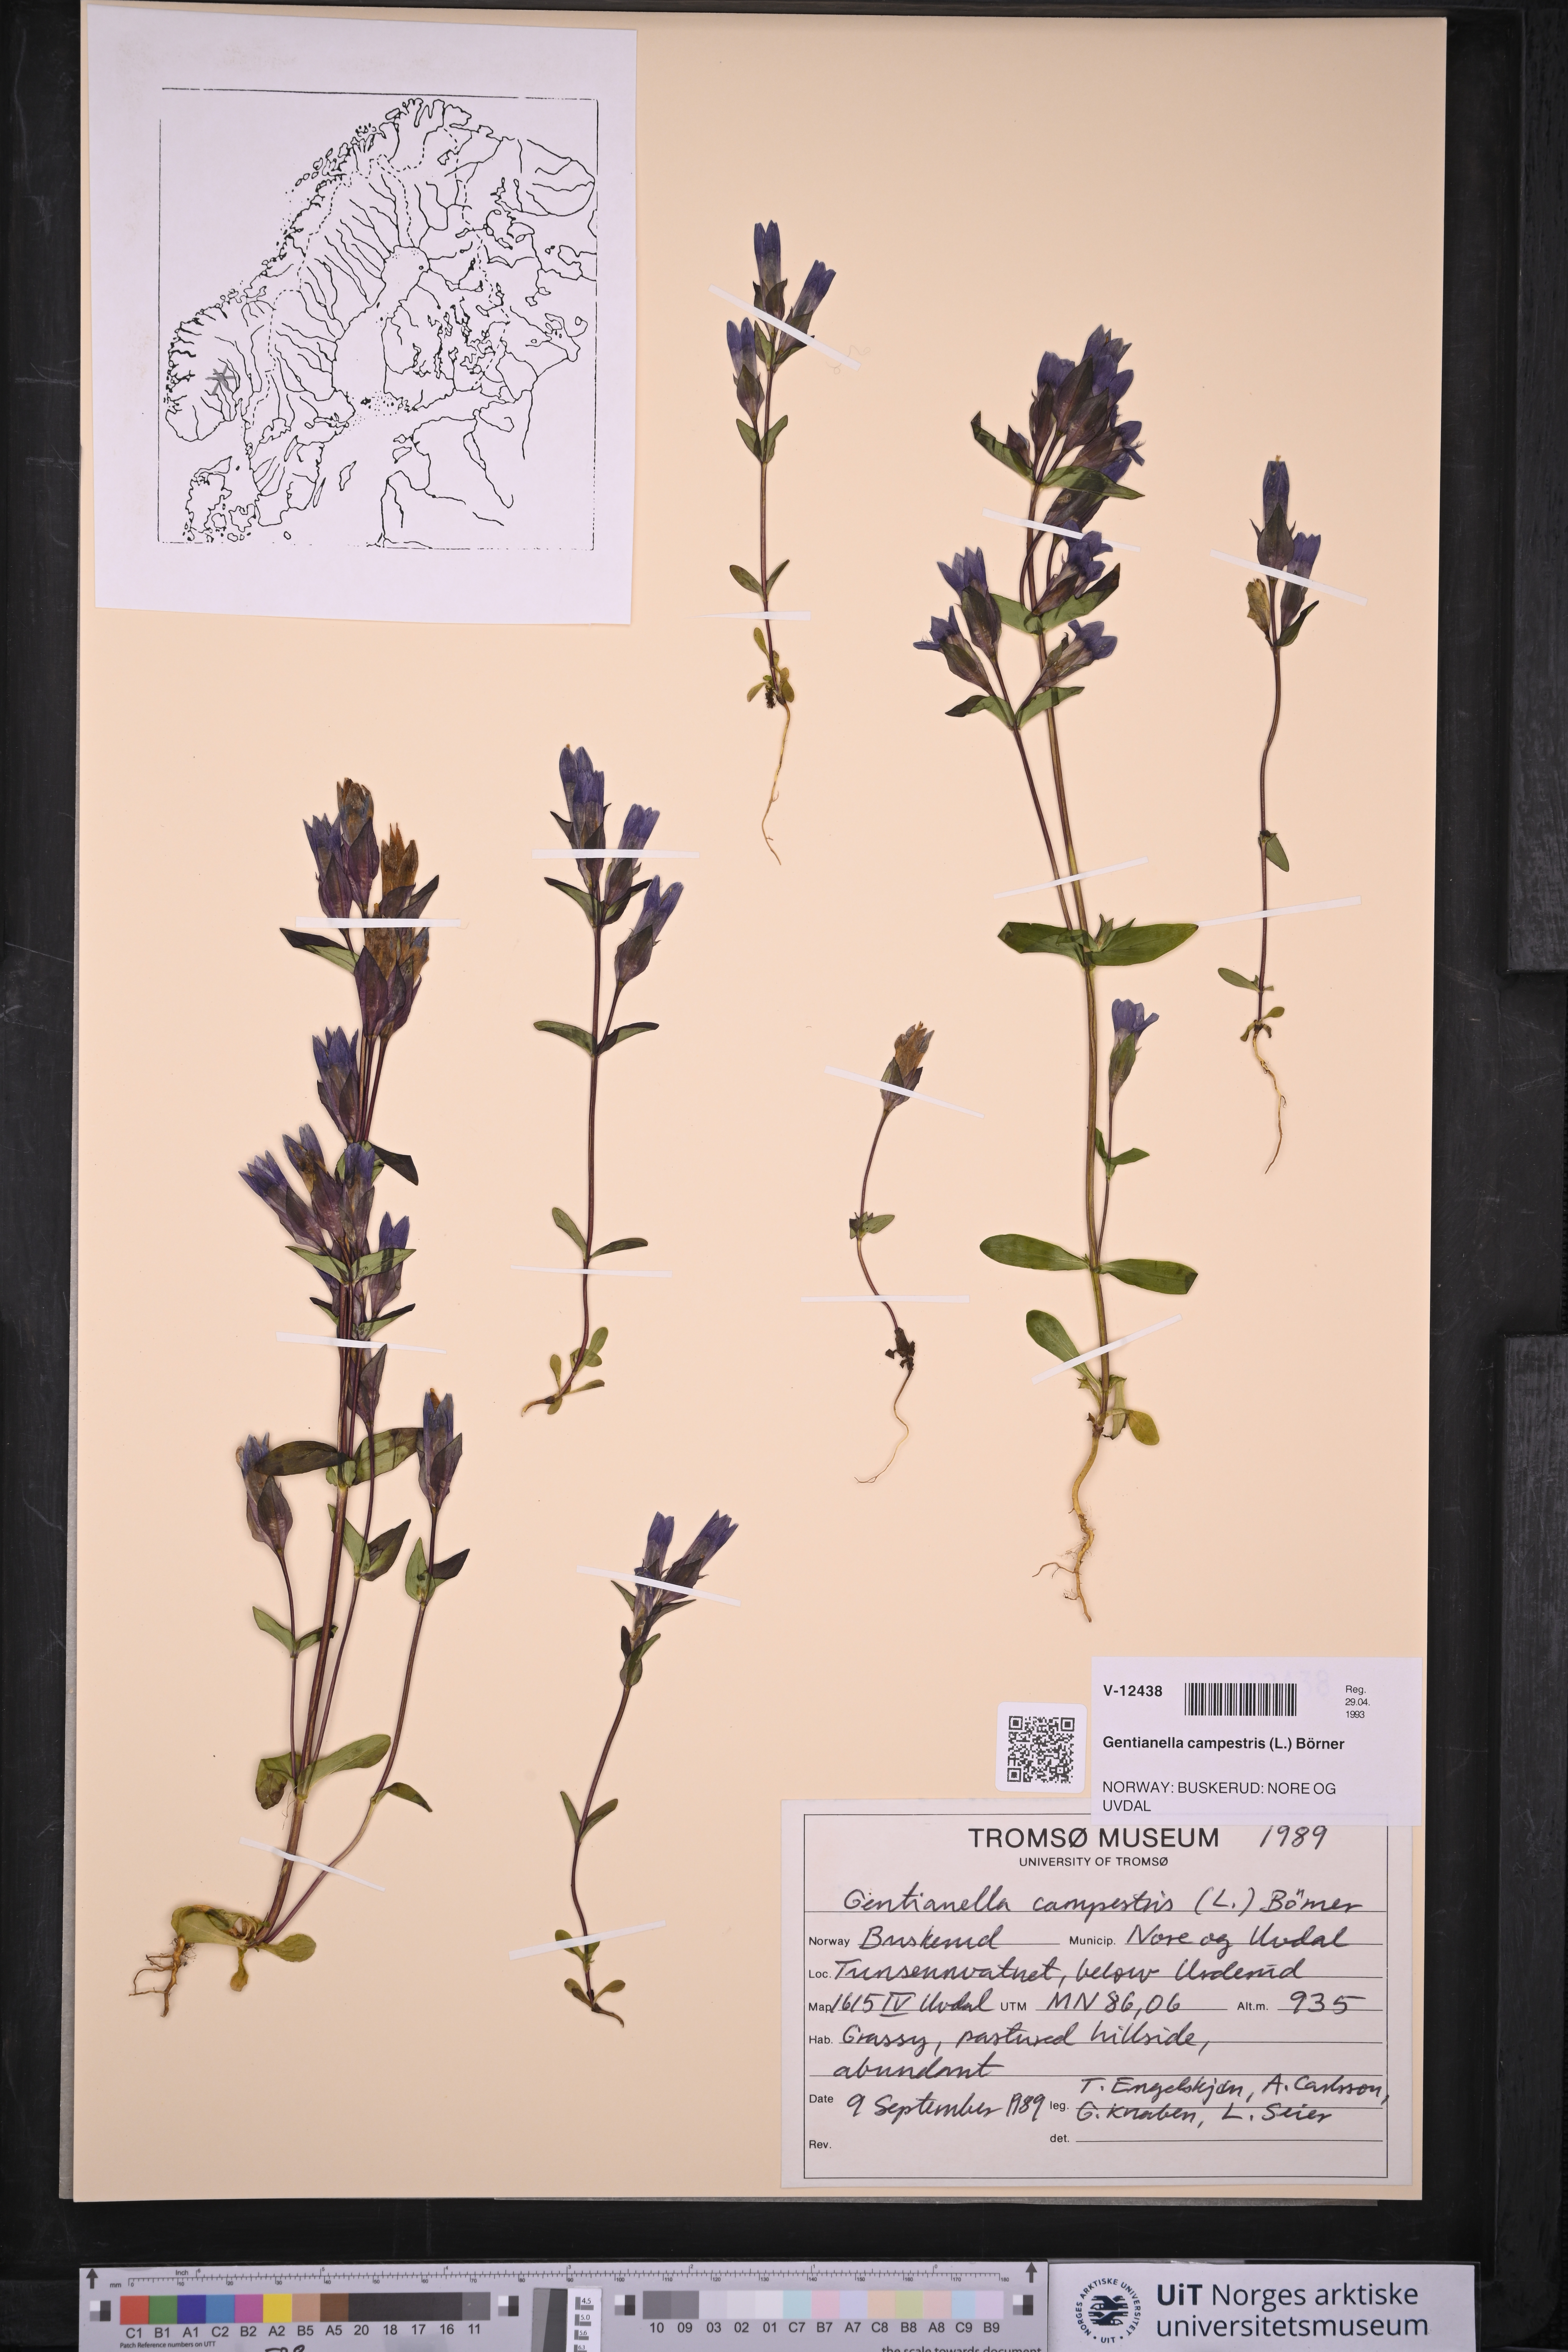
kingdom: Plantae
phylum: Tracheophyta
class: Magnoliopsida
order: Gentianales
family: Gentianaceae
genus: Gentianella
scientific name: Gentianella campestris
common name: Field gentian
